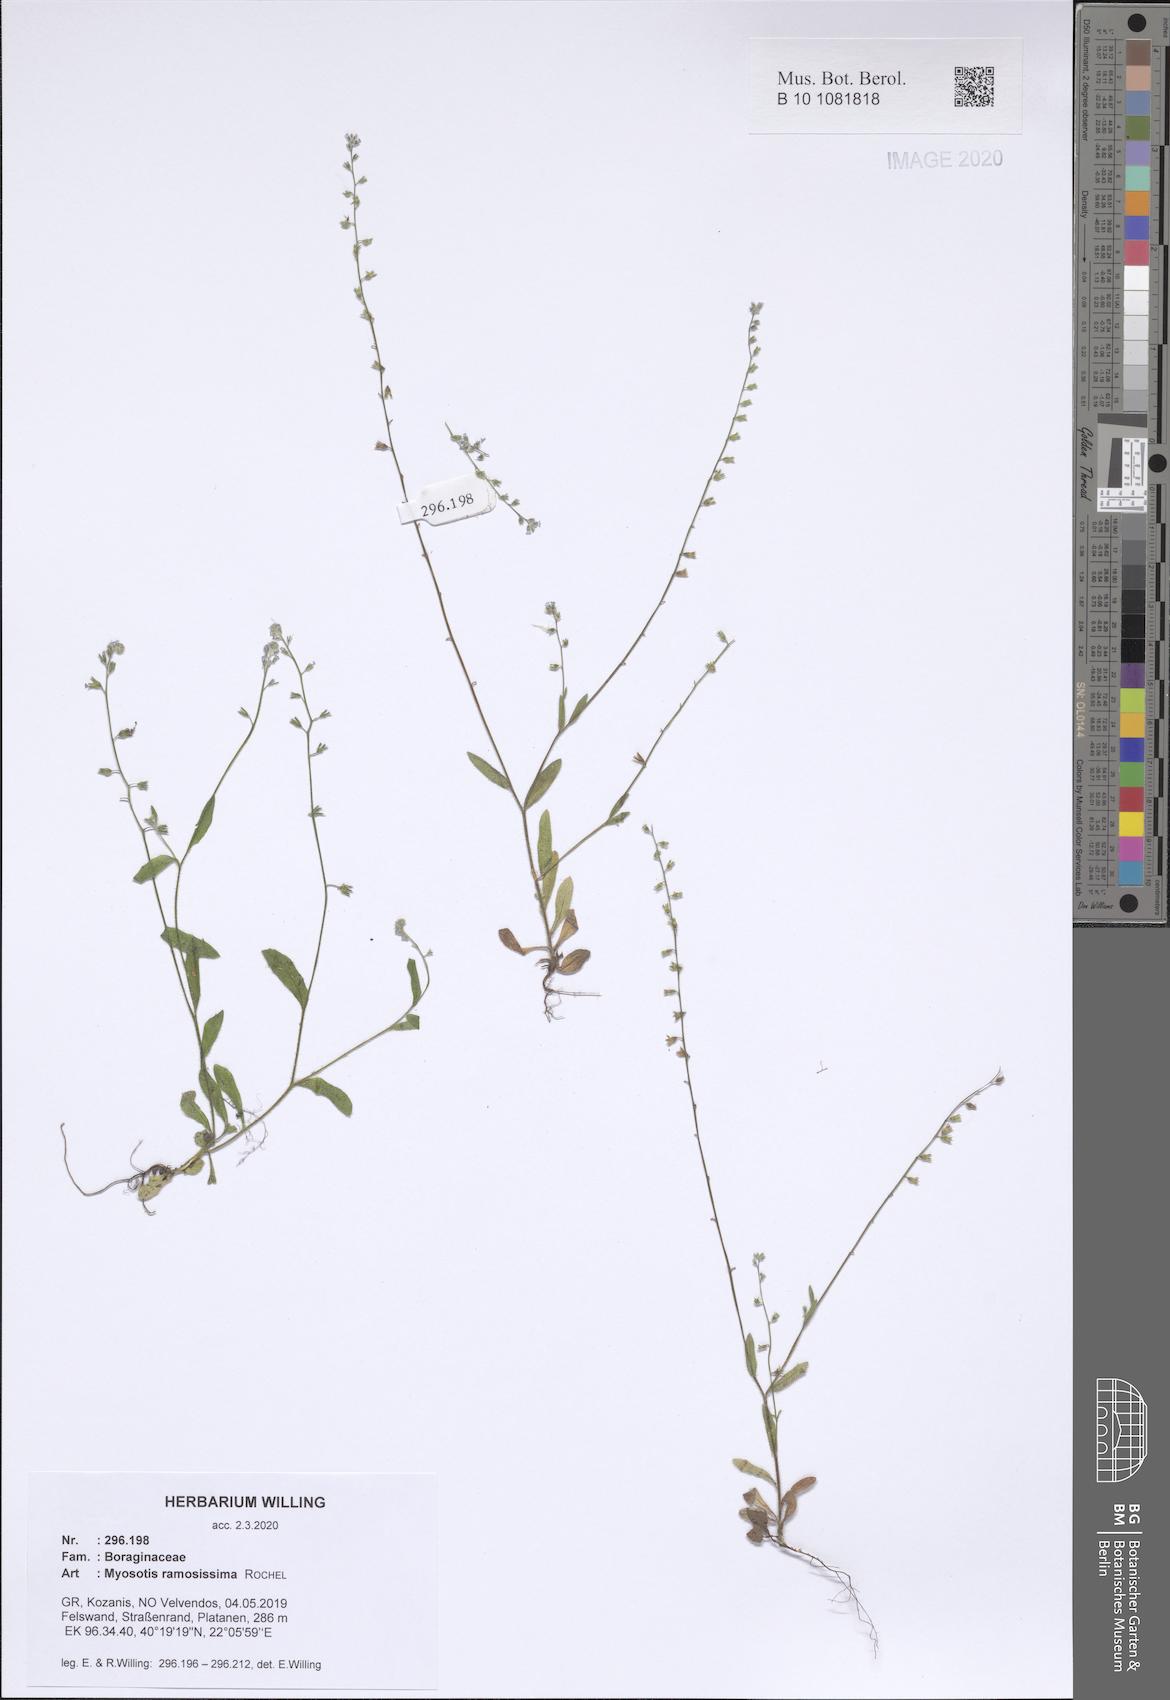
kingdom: Plantae
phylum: Tracheophyta
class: Magnoliopsida
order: Boraginales
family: Boraginaceae
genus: Myosotis
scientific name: Myosotis ramosissima
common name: Early forget-me-not
